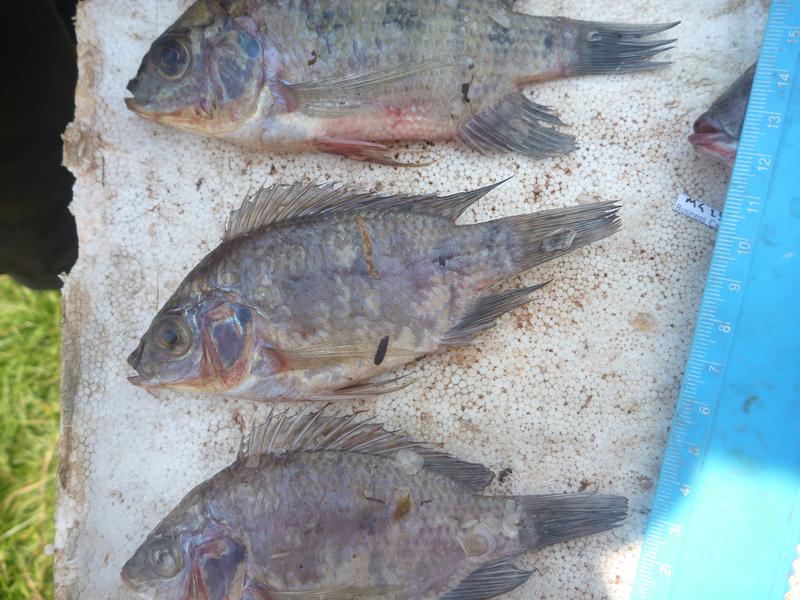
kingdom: Animalia
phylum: Chordata
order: Perciformes
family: Cichlidae
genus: Oreochromis
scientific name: Oreochromis upembae
